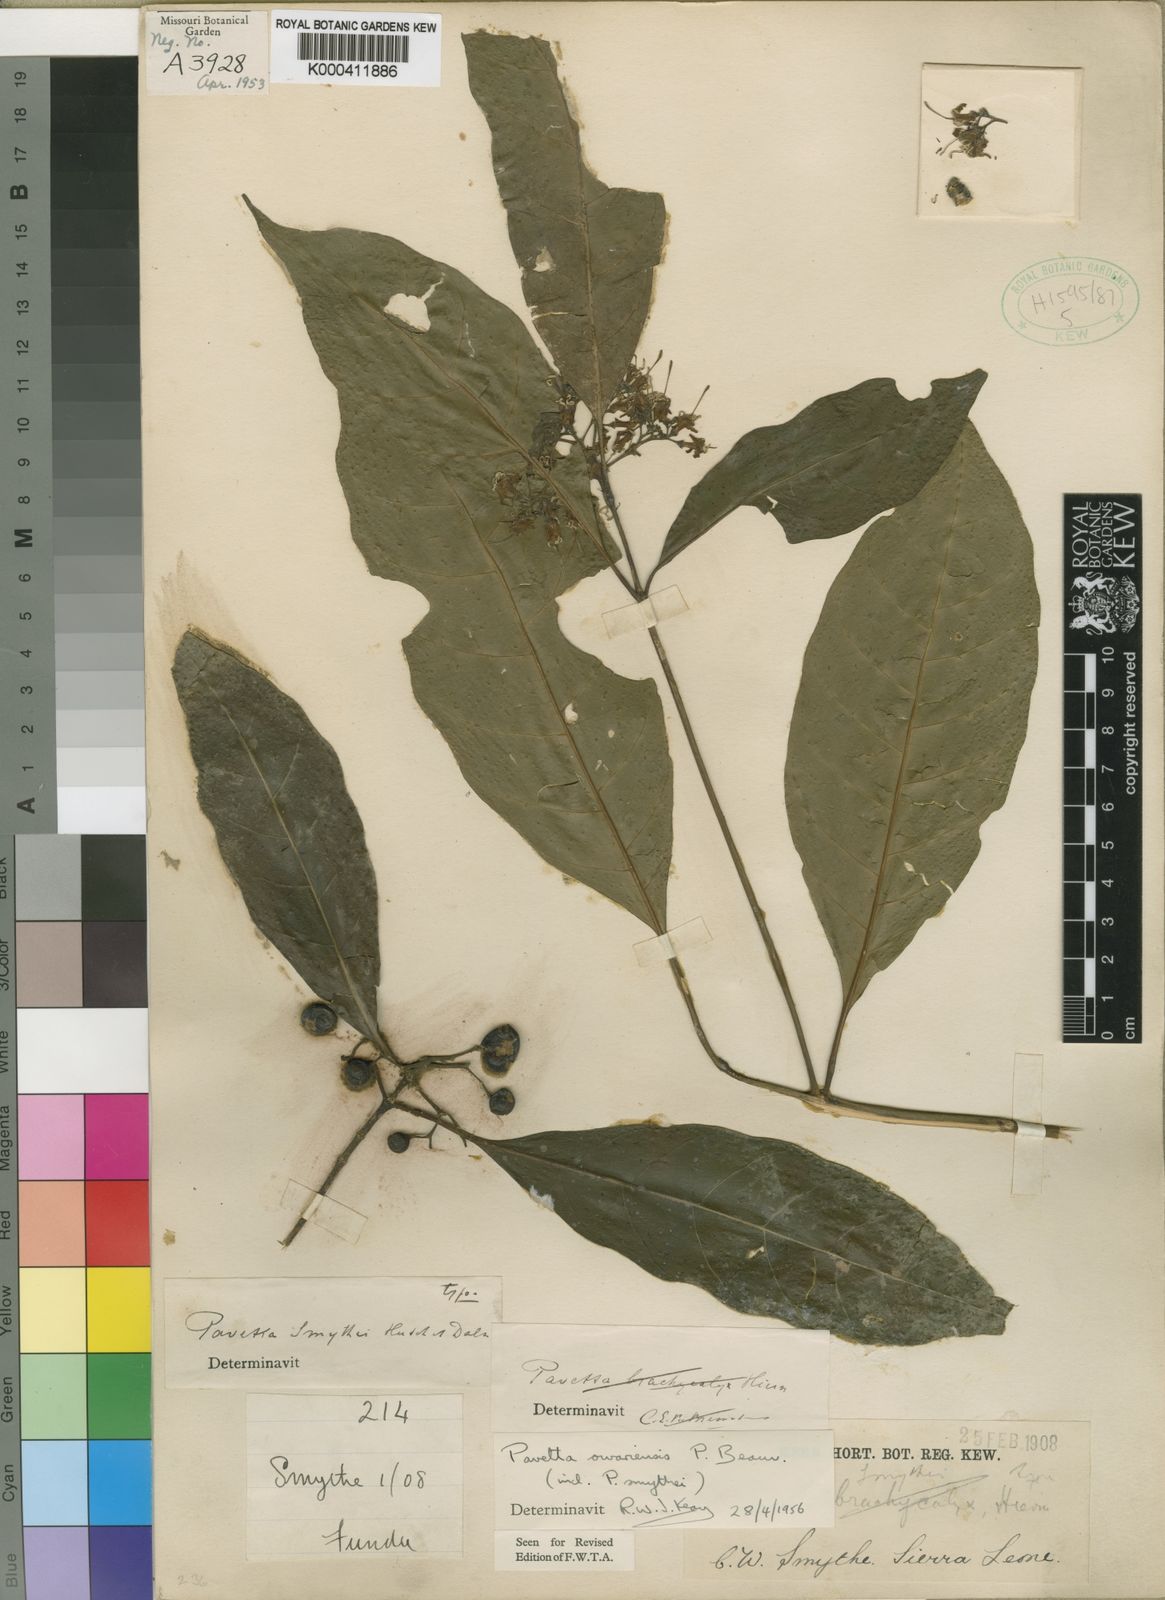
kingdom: Plantae
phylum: Tracheophyta
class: Magnoliopsida
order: Gentianales
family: Rubiaceae
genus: Pavetta
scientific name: Pavetta owariensis
